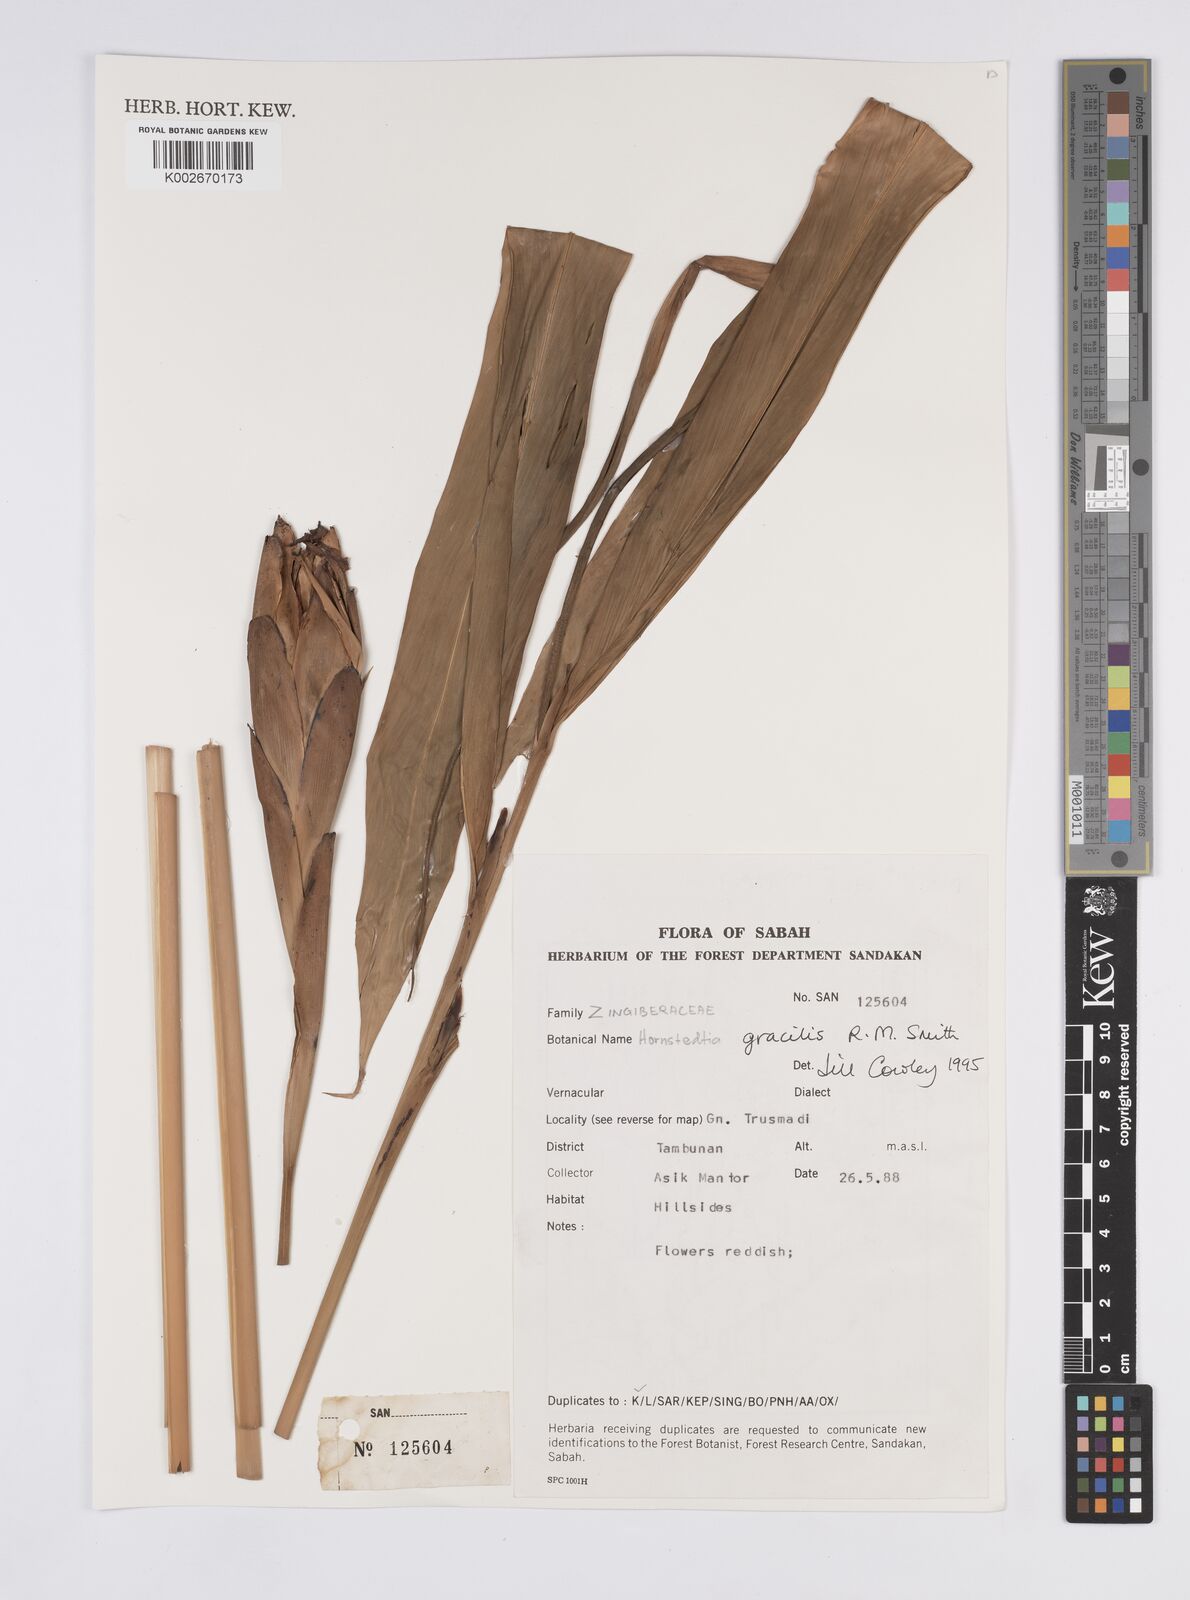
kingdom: Plantae
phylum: Tracheophyta
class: Liliopsida
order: Zingiberales
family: Zingiberaceae
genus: Hornstedtia
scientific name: Hornstedtia gracilis
